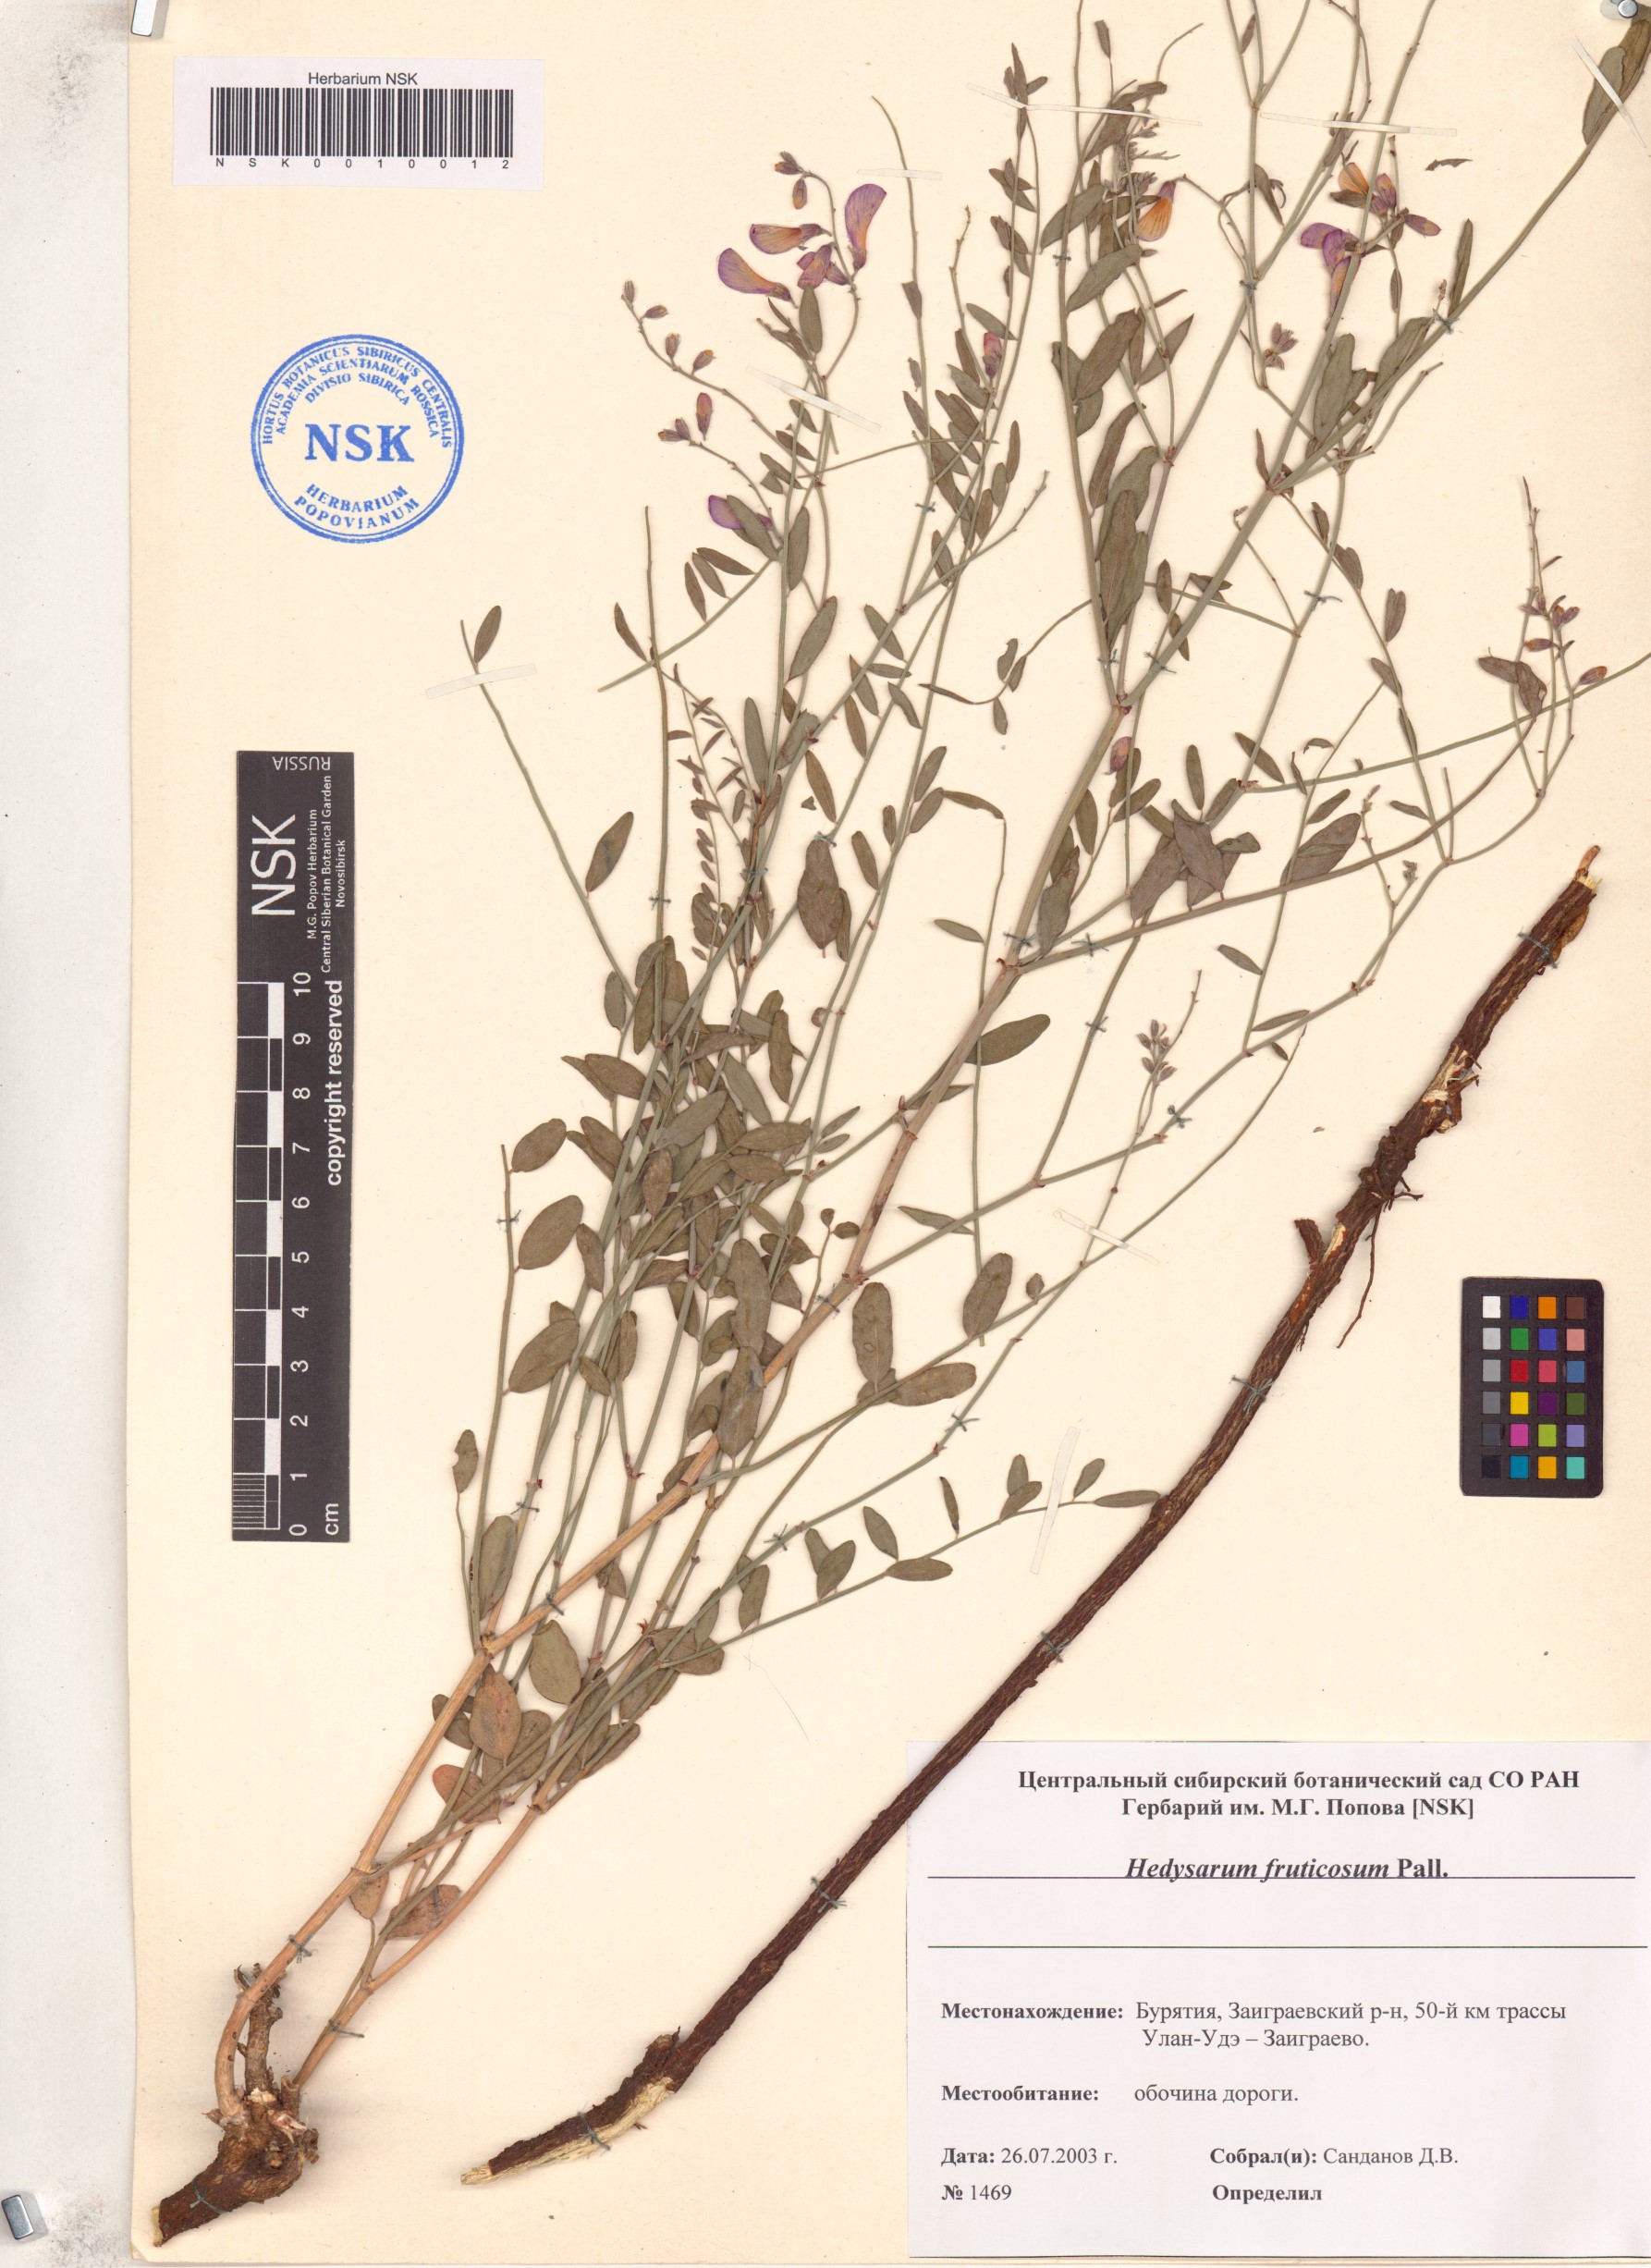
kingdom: Plantae
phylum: Tracheophyta
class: Magnoliopsida
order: Fabales
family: Fabaceae
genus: Corethrodendron
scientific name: Corethrodendron fruticosum
